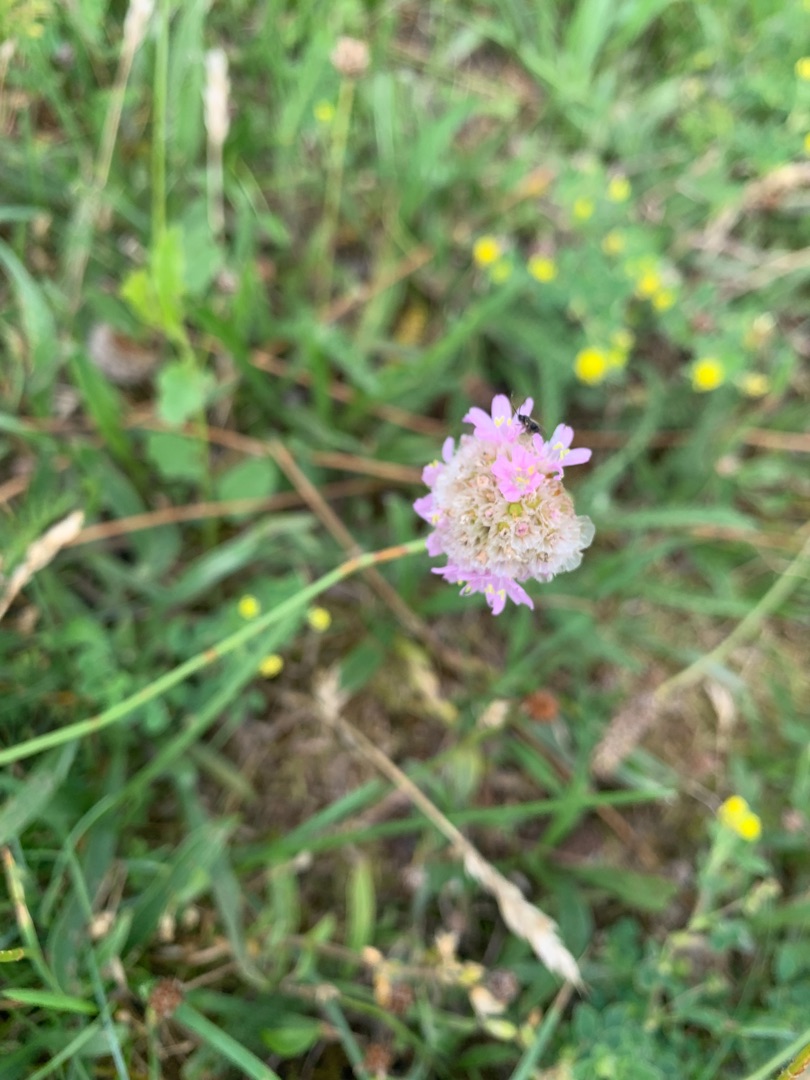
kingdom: Plantae
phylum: Tracheophyta
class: Magnoliopsida
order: Caryophyllales
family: Plumbaginaceae
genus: Armeria
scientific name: Armeria maritima
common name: Engelskgræs
